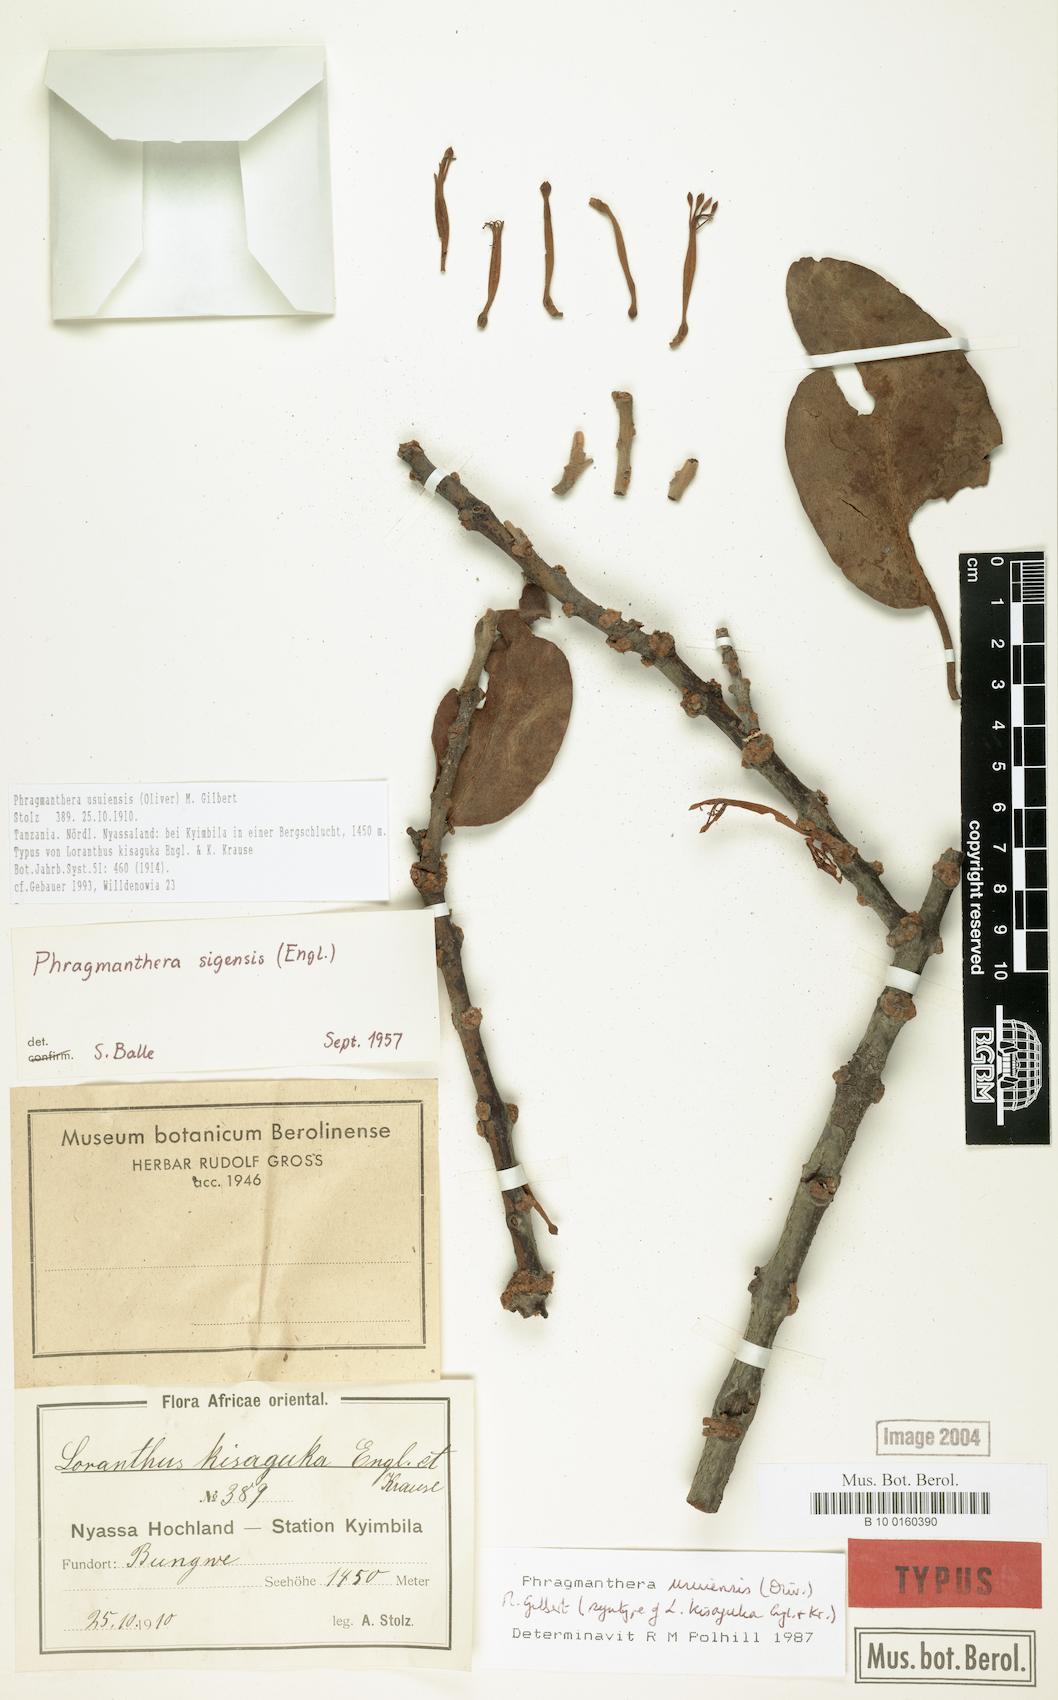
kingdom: Plantae
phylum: Tracheophyta
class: Magnoliopsida
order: Santalales
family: Loranthaceae
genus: Phragmanthera
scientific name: Phragmanthera usuiensis
